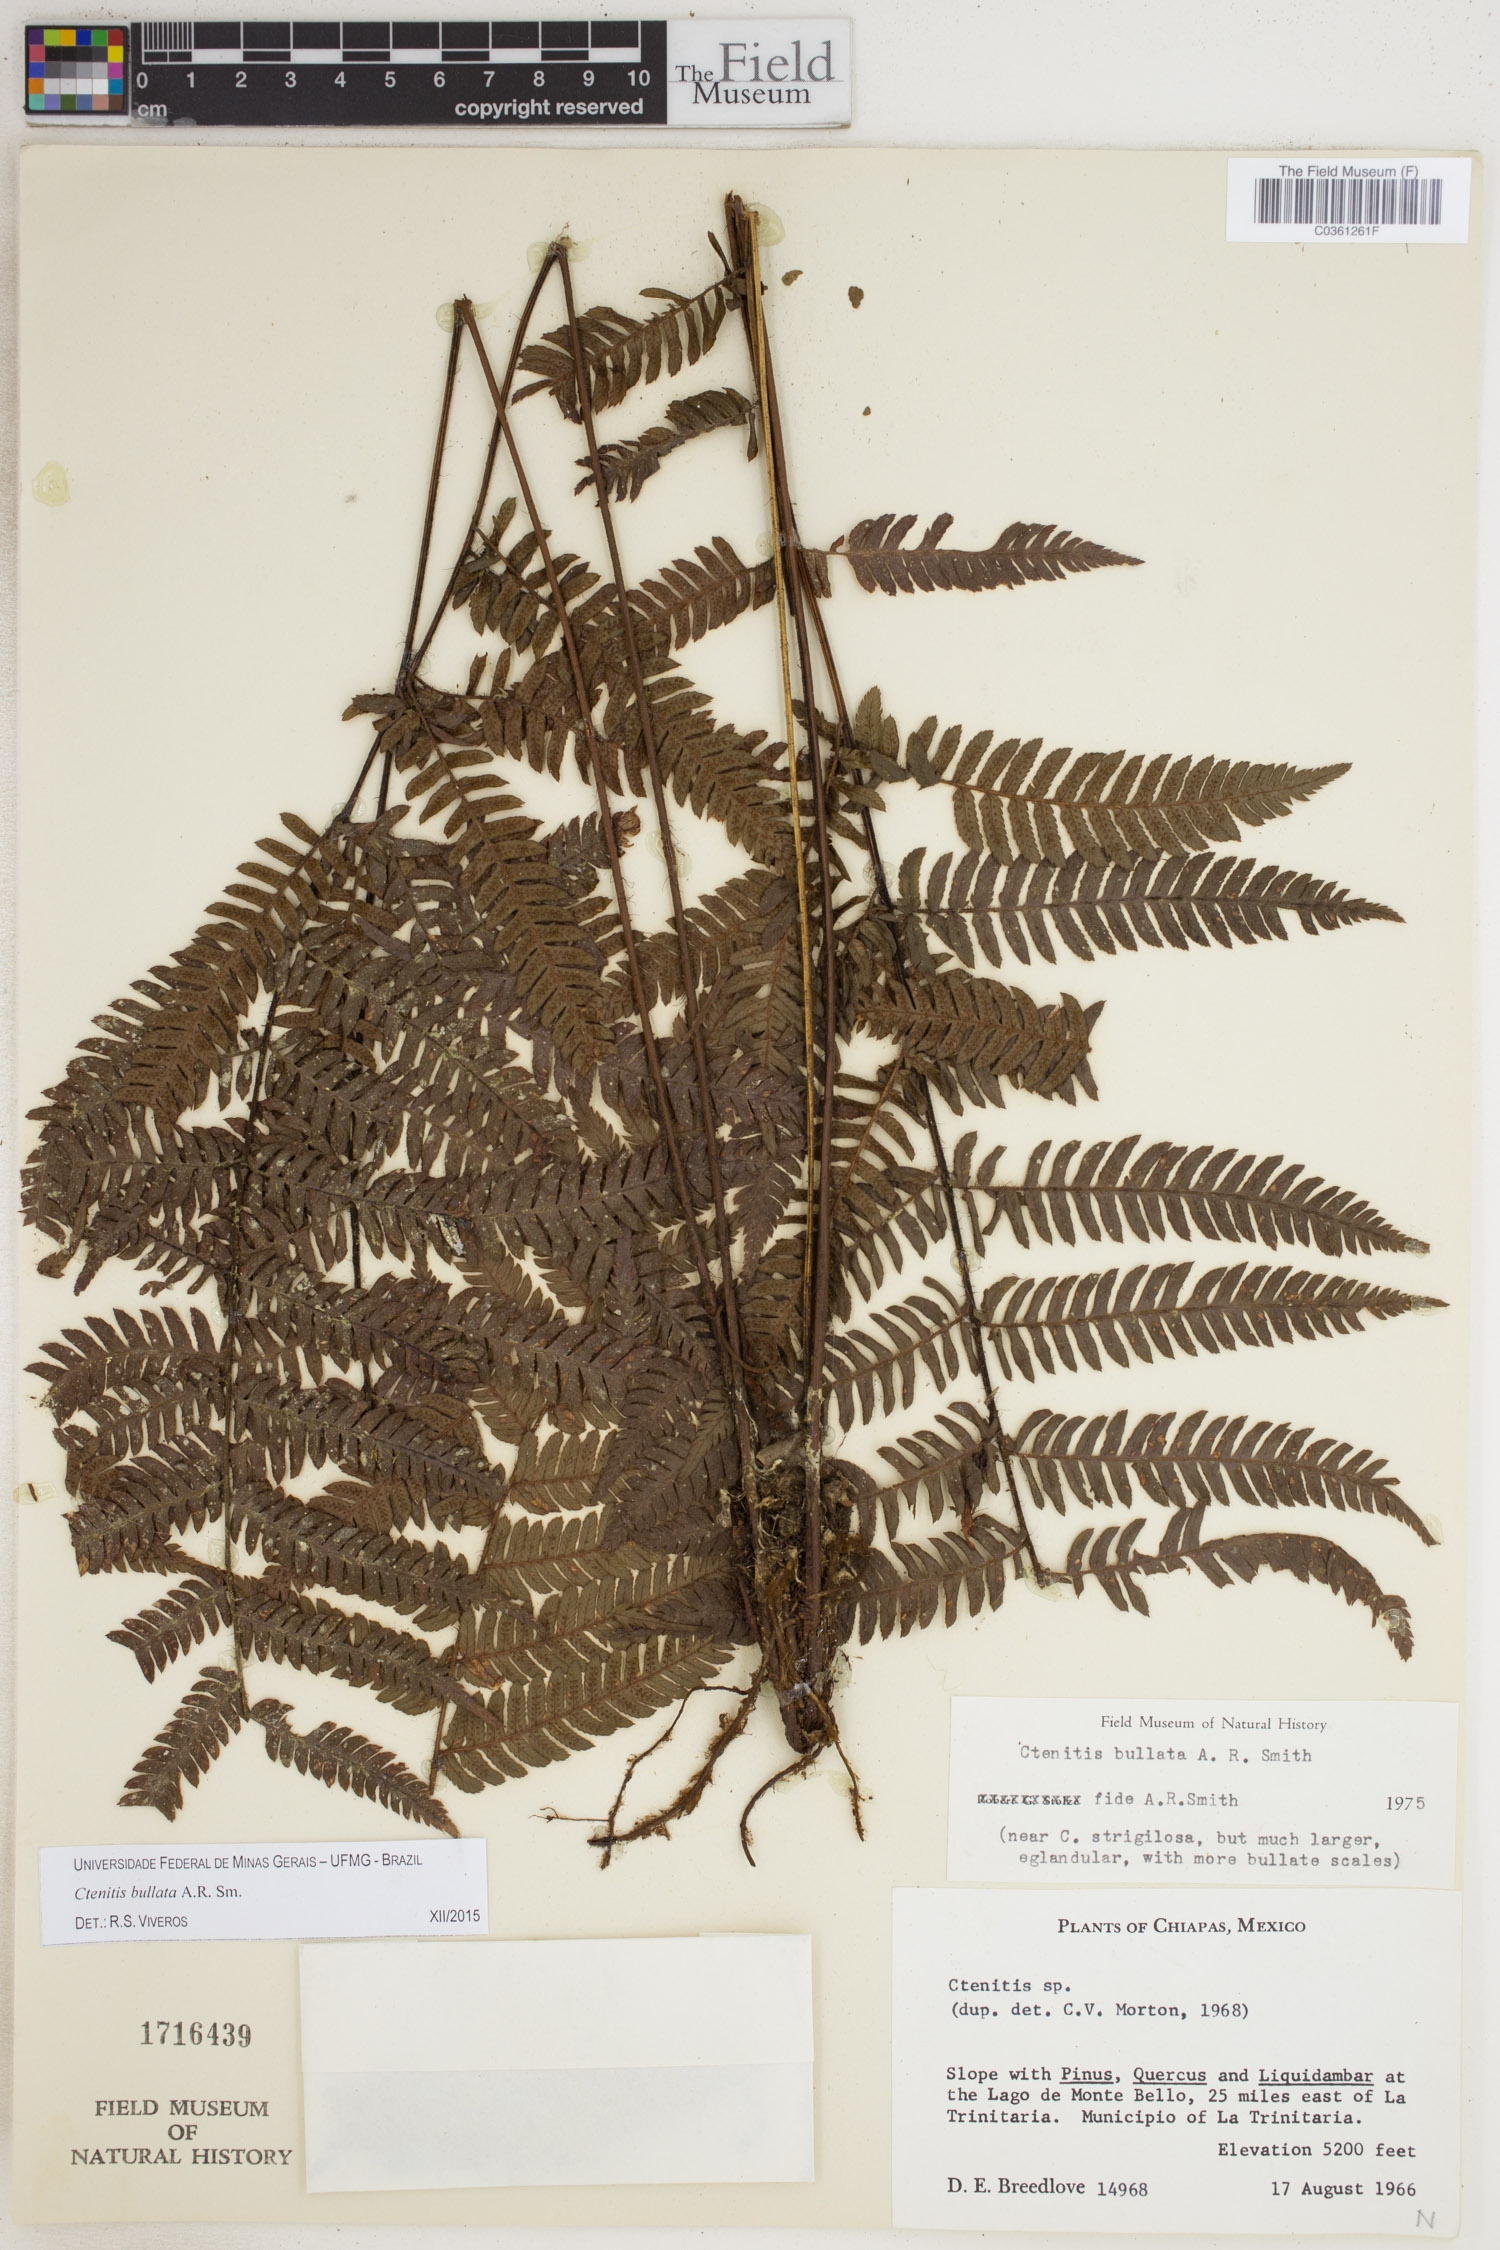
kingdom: Plantae
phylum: Tracheophyta
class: Polypodiopsida
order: Polypodiales
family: Dryopteridaceae
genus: Ctenitis
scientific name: Ctenitis bullata
